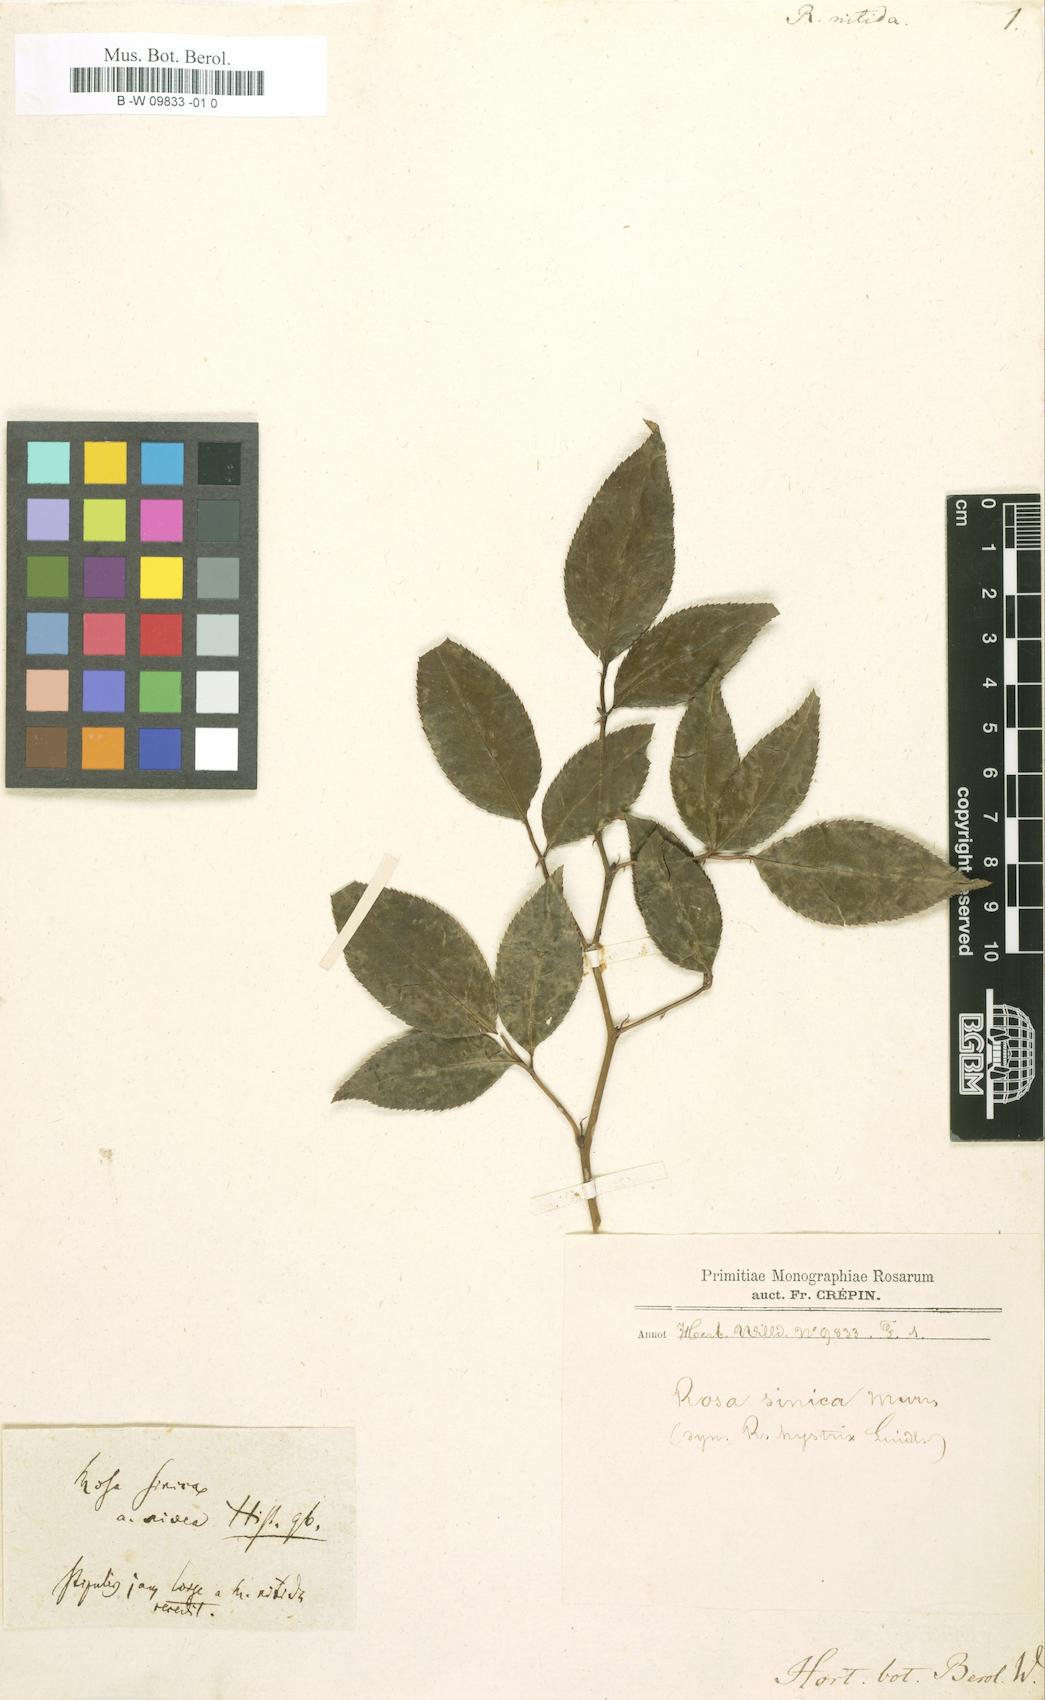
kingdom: Plantae
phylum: Tracheophyta
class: Magnoliopsida
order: Rosales
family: Rosaceae
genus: Rosa
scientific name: Rosa nitida
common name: New england rose
